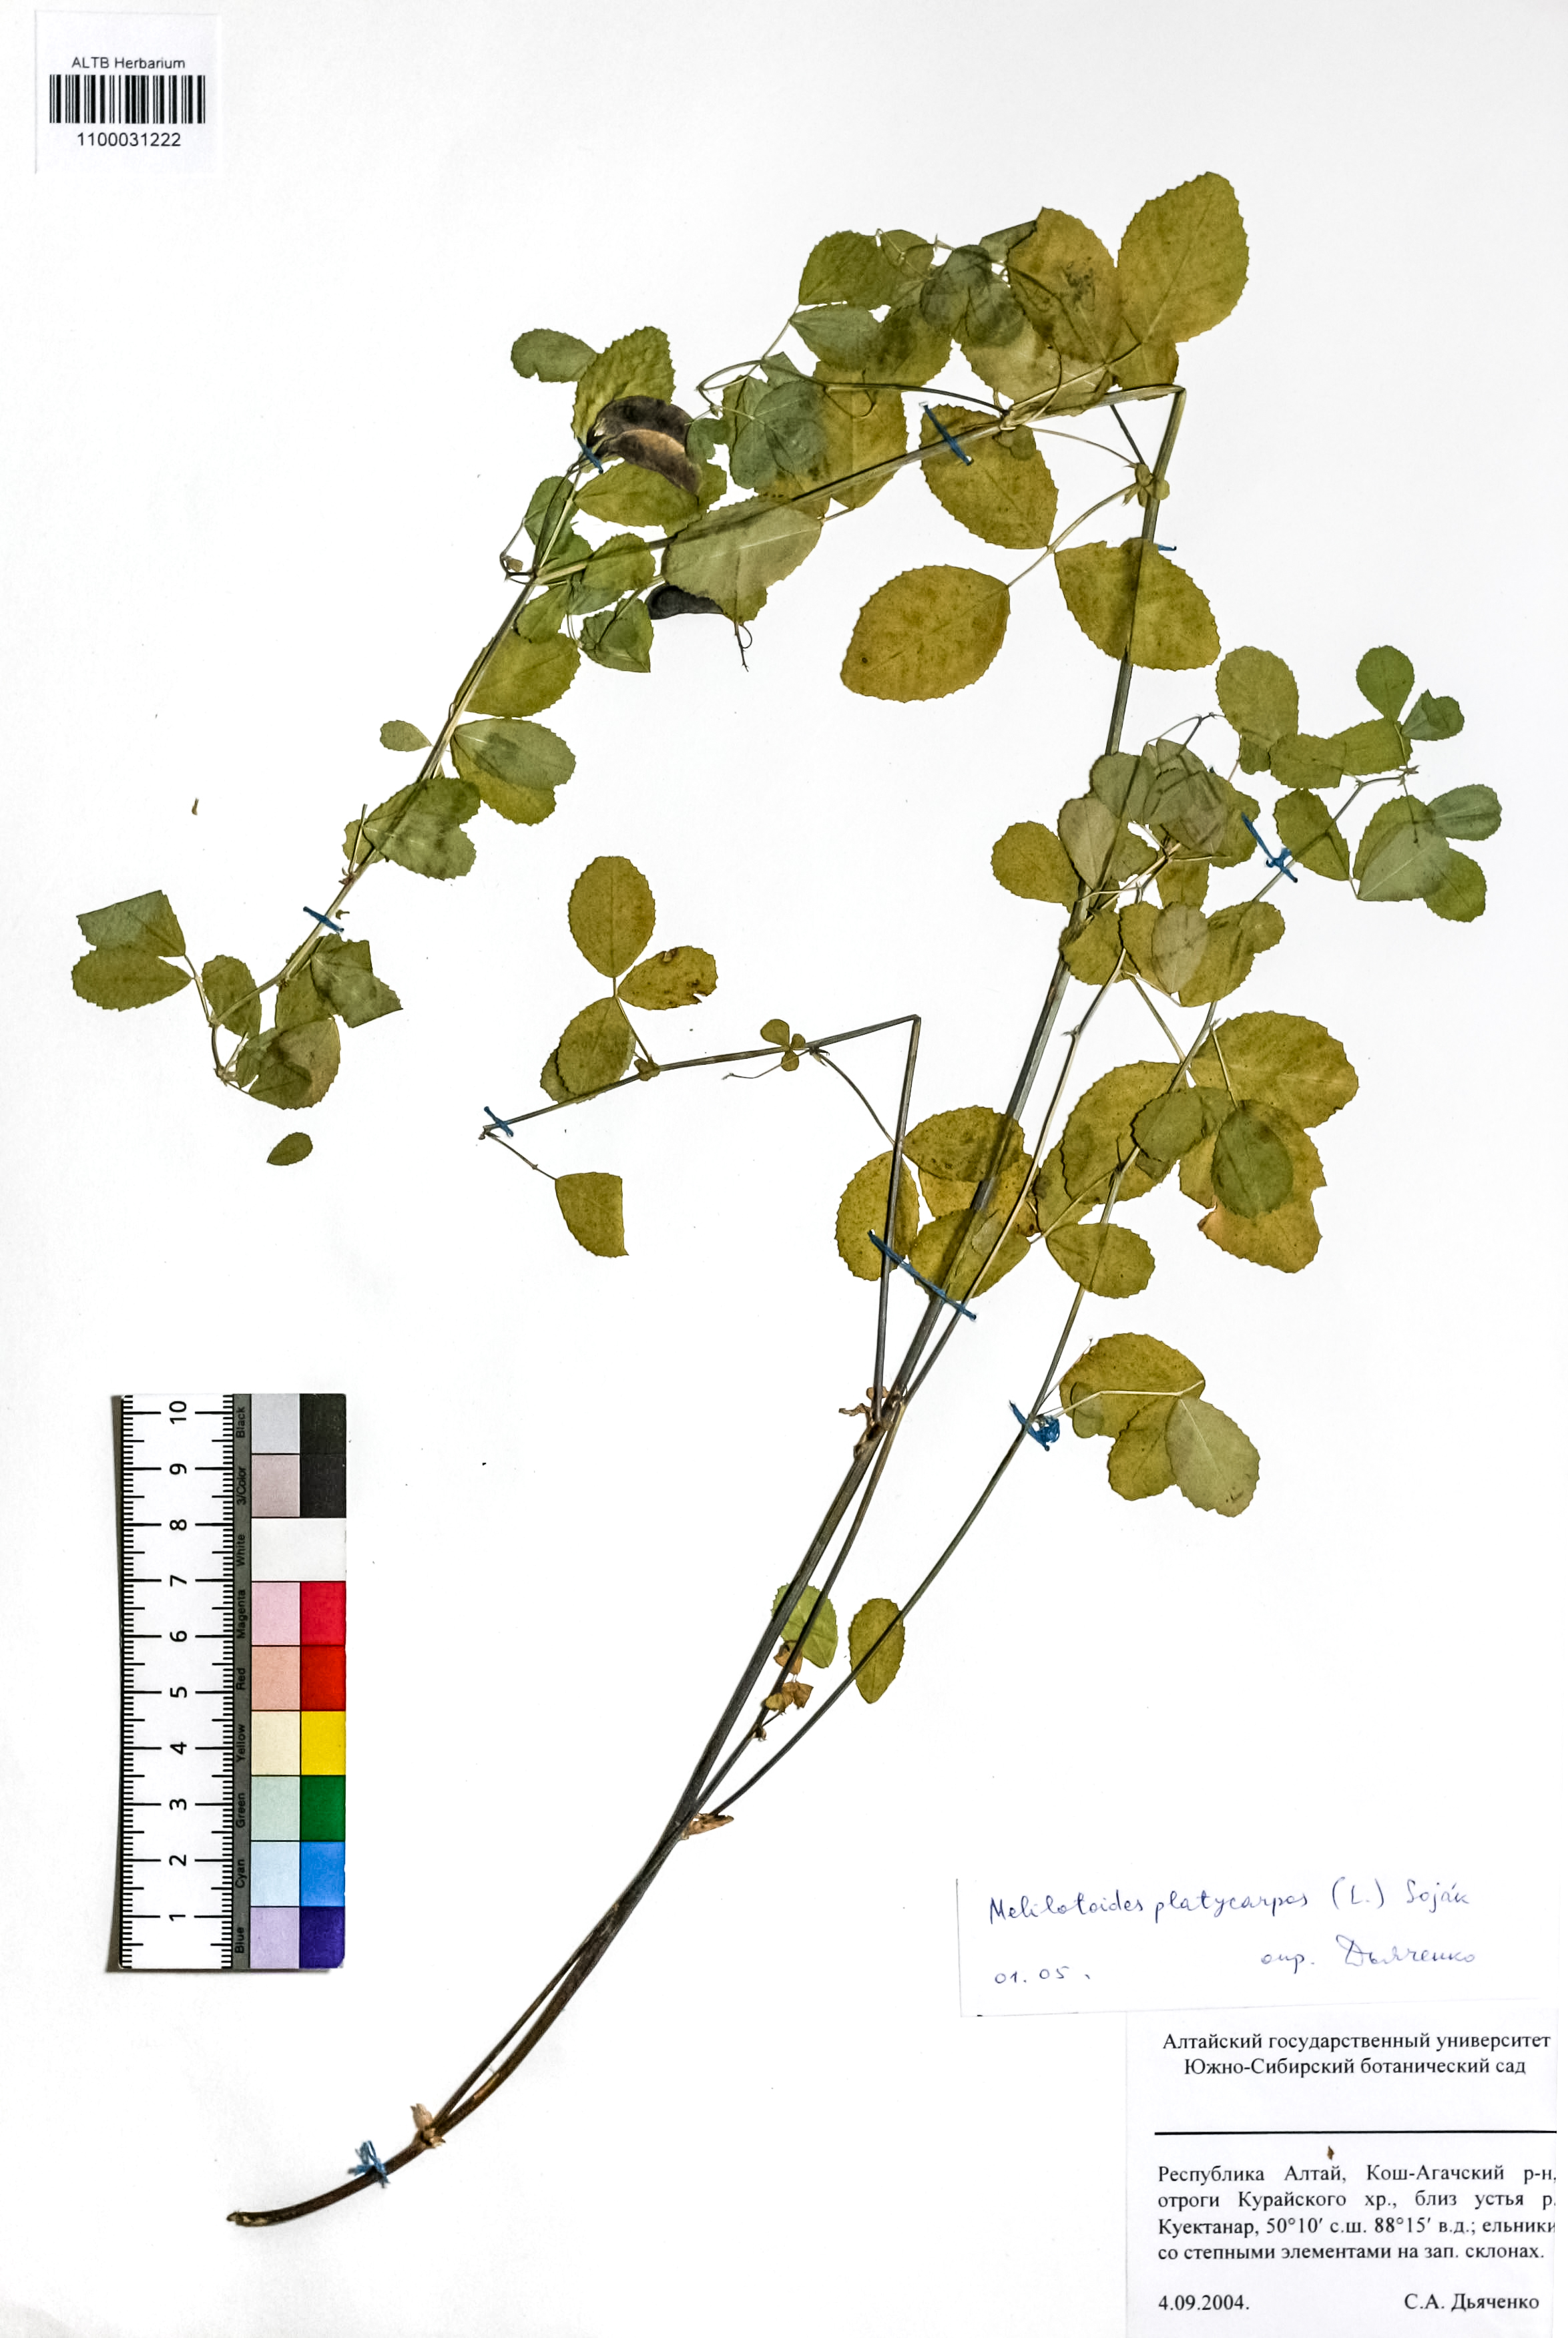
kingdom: Plantae
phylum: Tracheophyta
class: Magnoliopsida
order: Fabales
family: Fabaceae
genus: Medicago
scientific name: Medicago platycarpos
